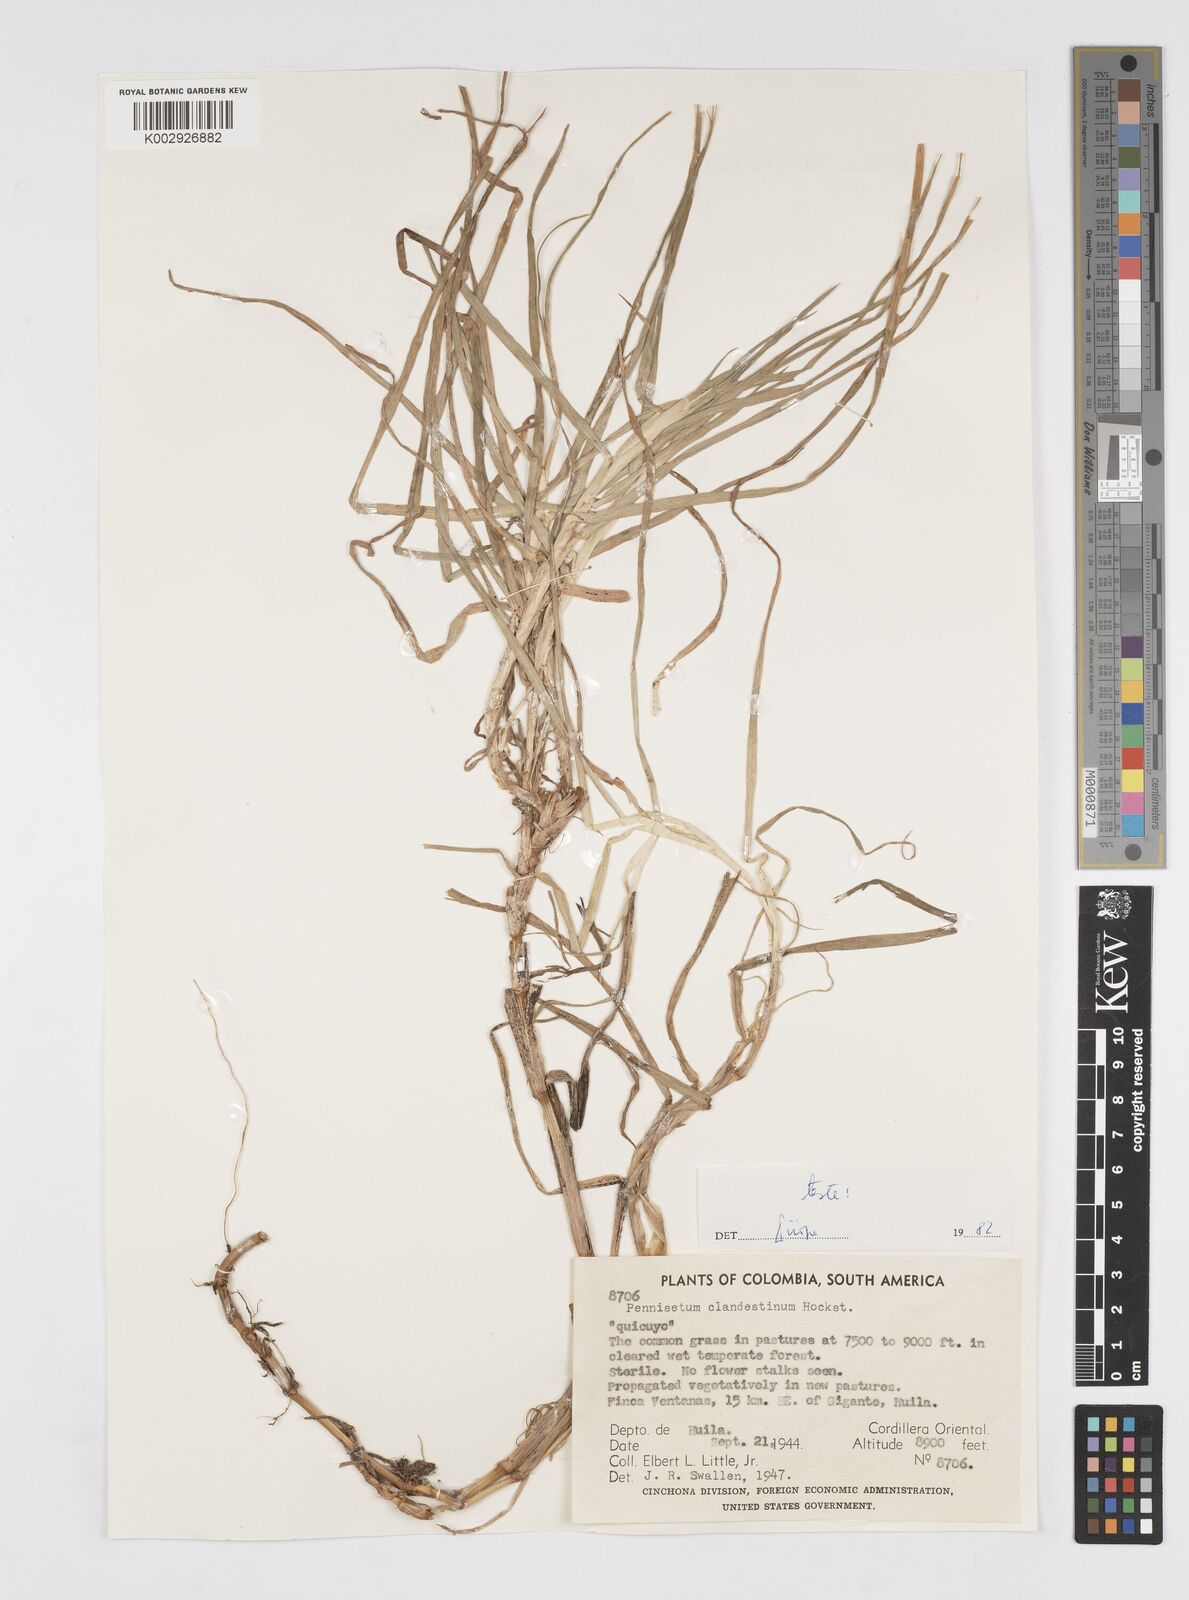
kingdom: Plantae
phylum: Tracheophyta
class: Liliopsida
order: Poales
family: Poaceae
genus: Cenchrus
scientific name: Cenchrus clandestinus
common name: Kikuyugrass
